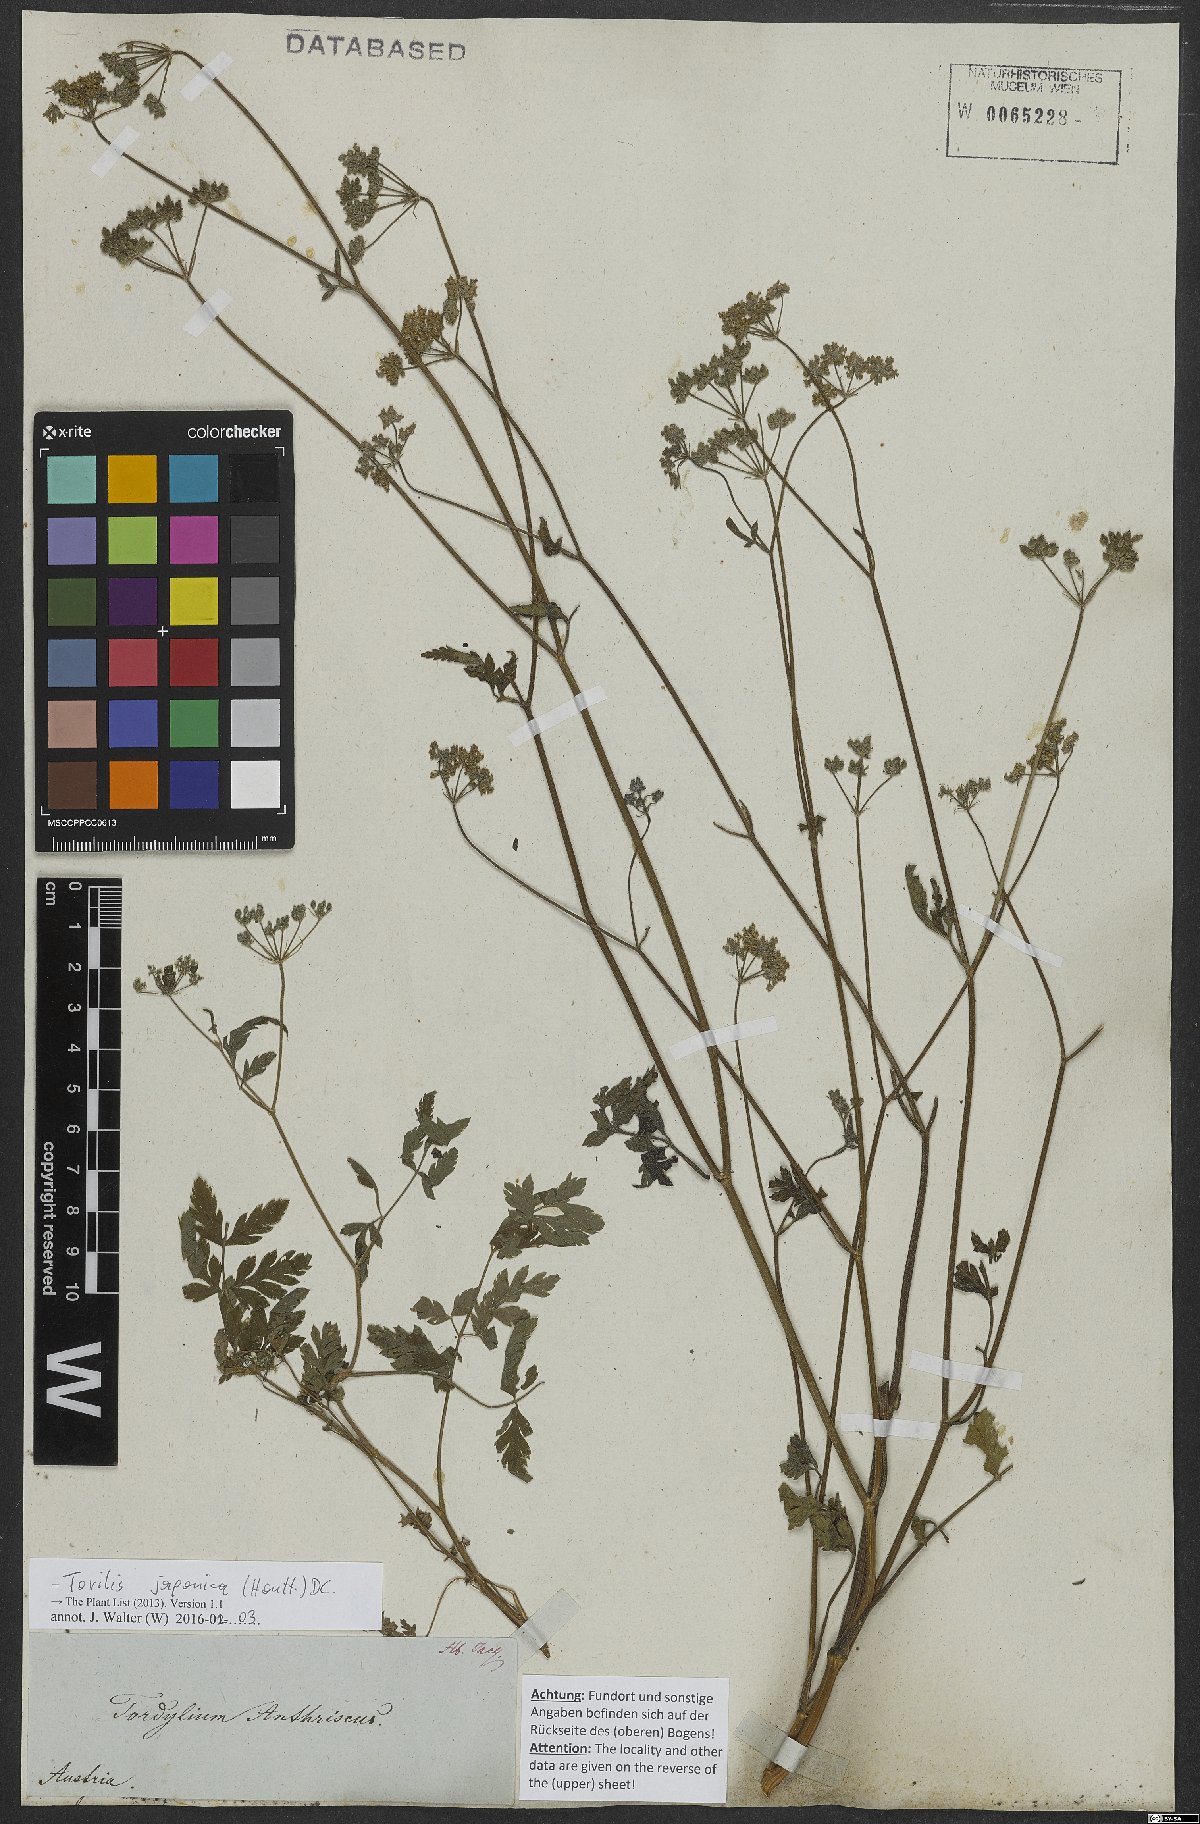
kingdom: Plantae
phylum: Tracheophyta
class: Magnoliopsida
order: Apiales
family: Apiaceae
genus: Torilis
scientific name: Torilis japonica
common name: Upright hedge-parsley
